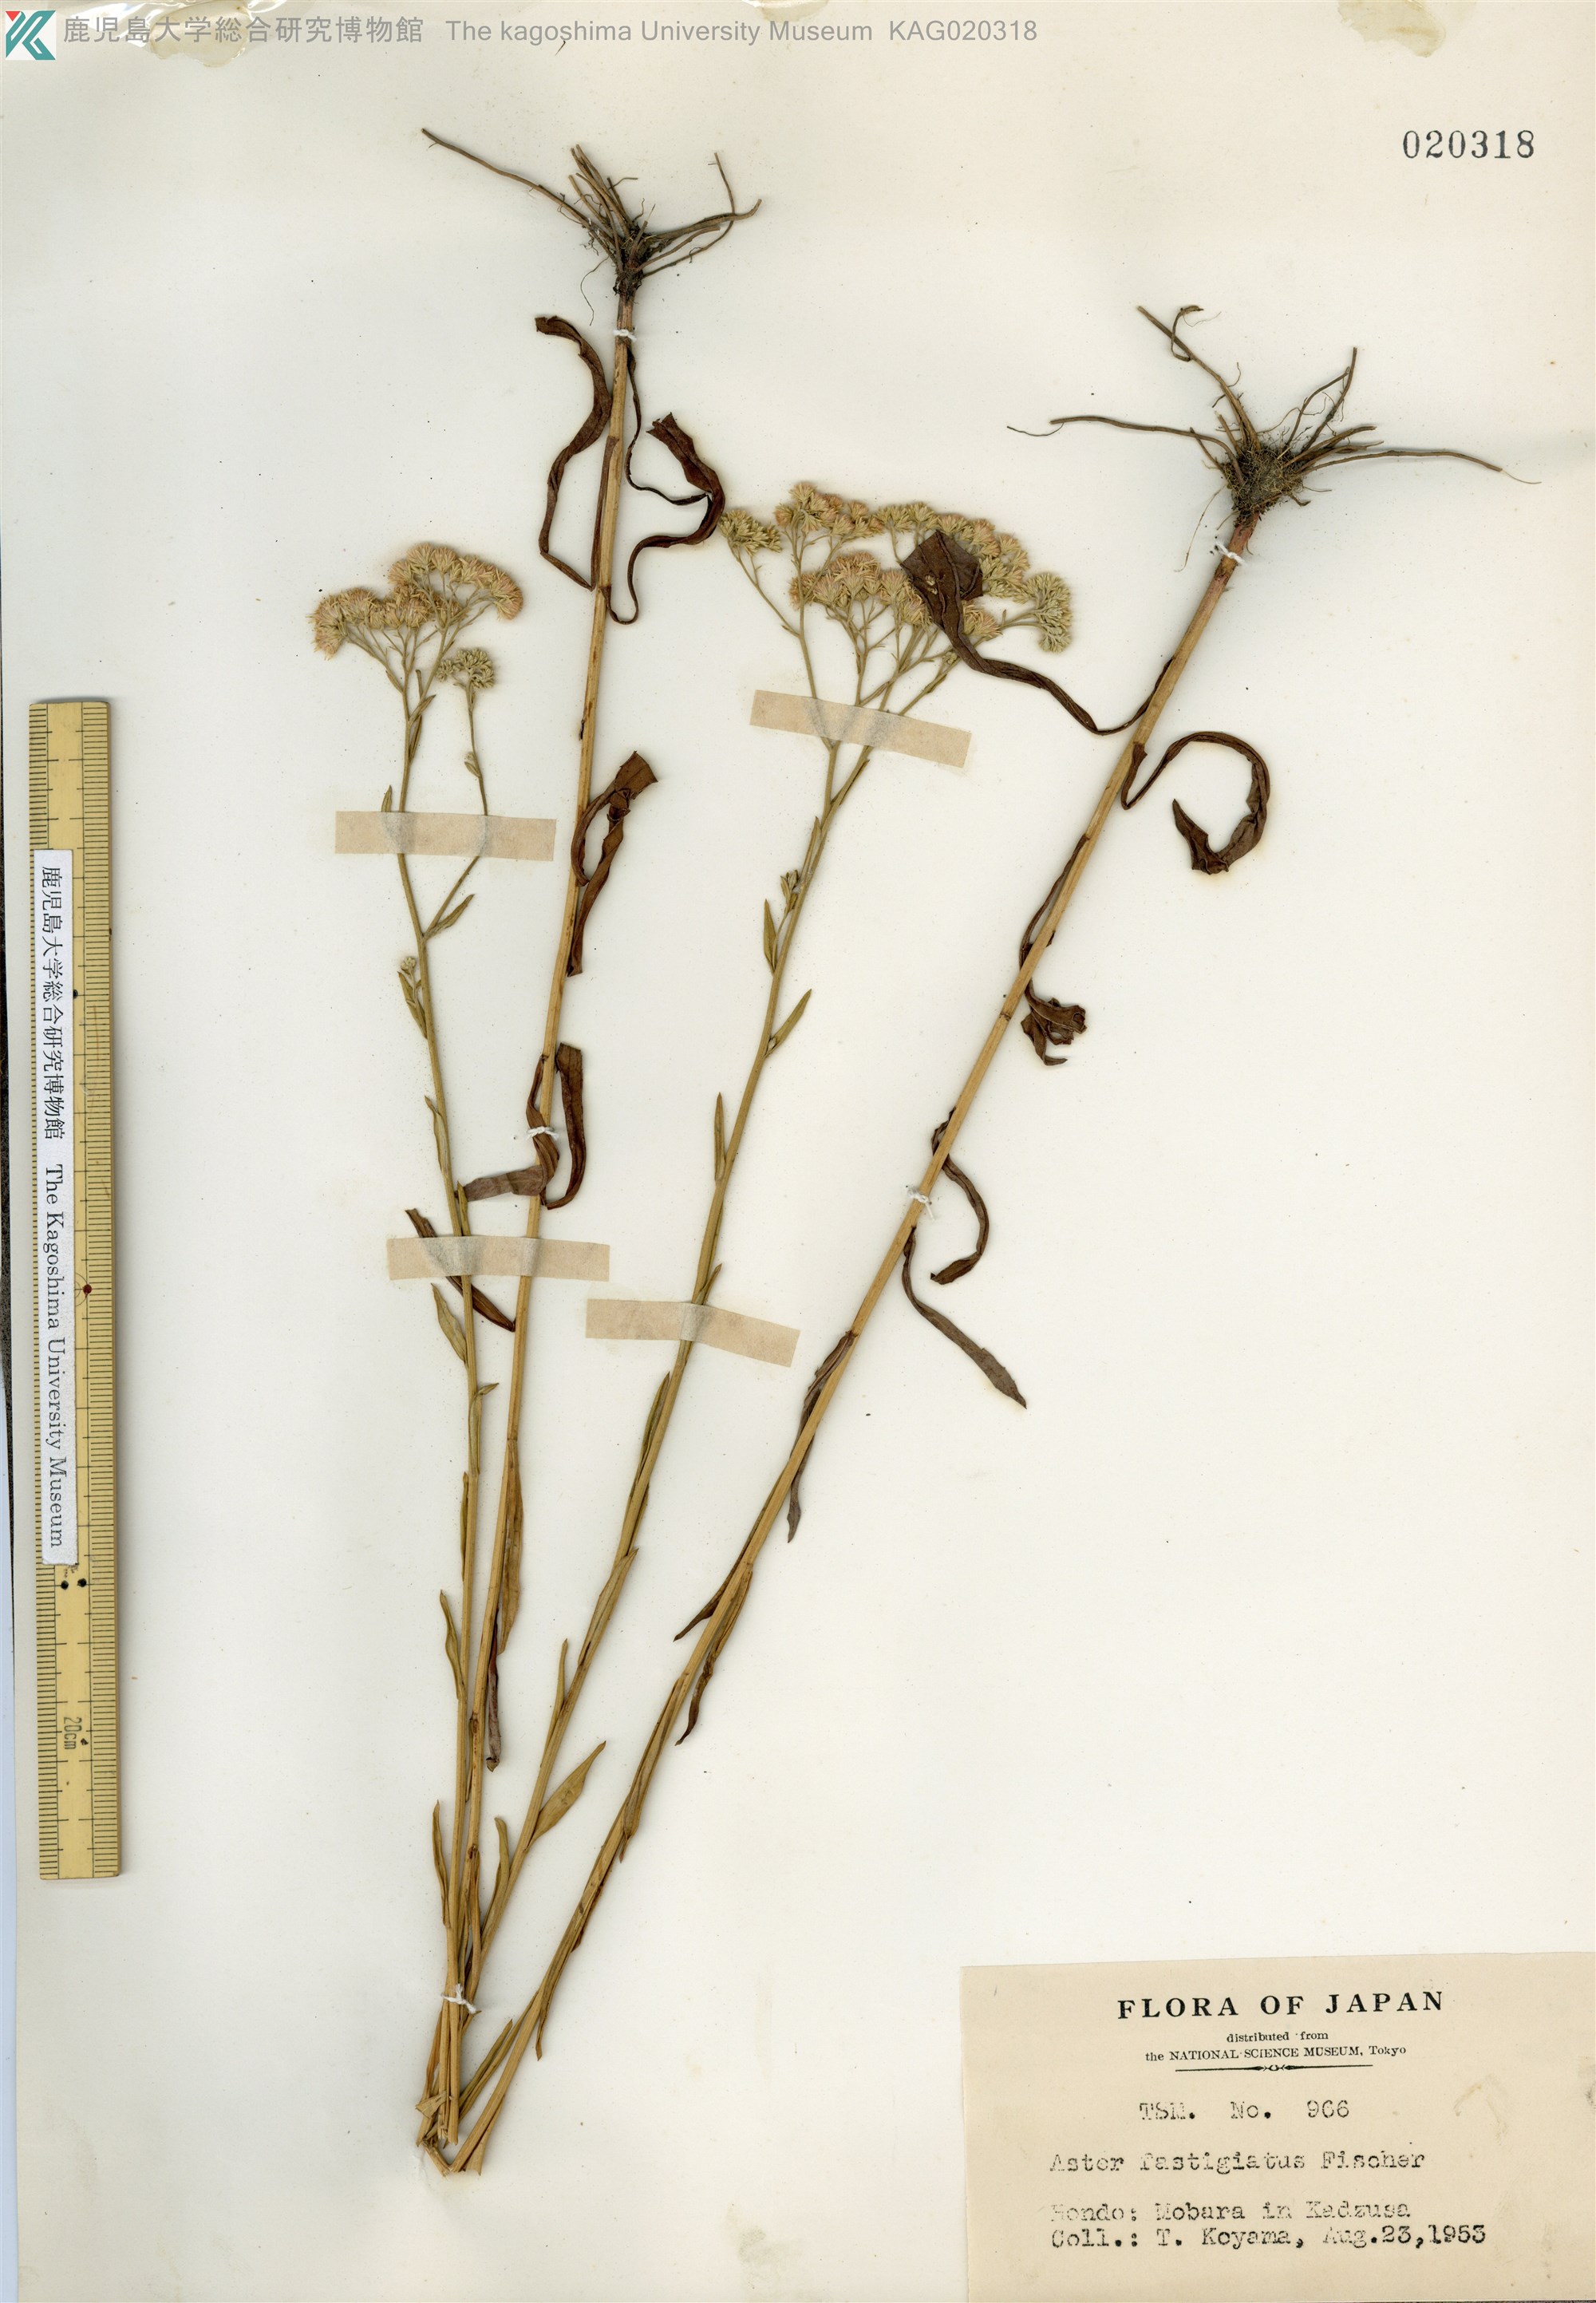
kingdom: Plantae
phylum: Tracheophyta
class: Magnoliopsida
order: Asterales
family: Asteraceae
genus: Turczaninovia
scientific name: Turczaninovia fastigiata
